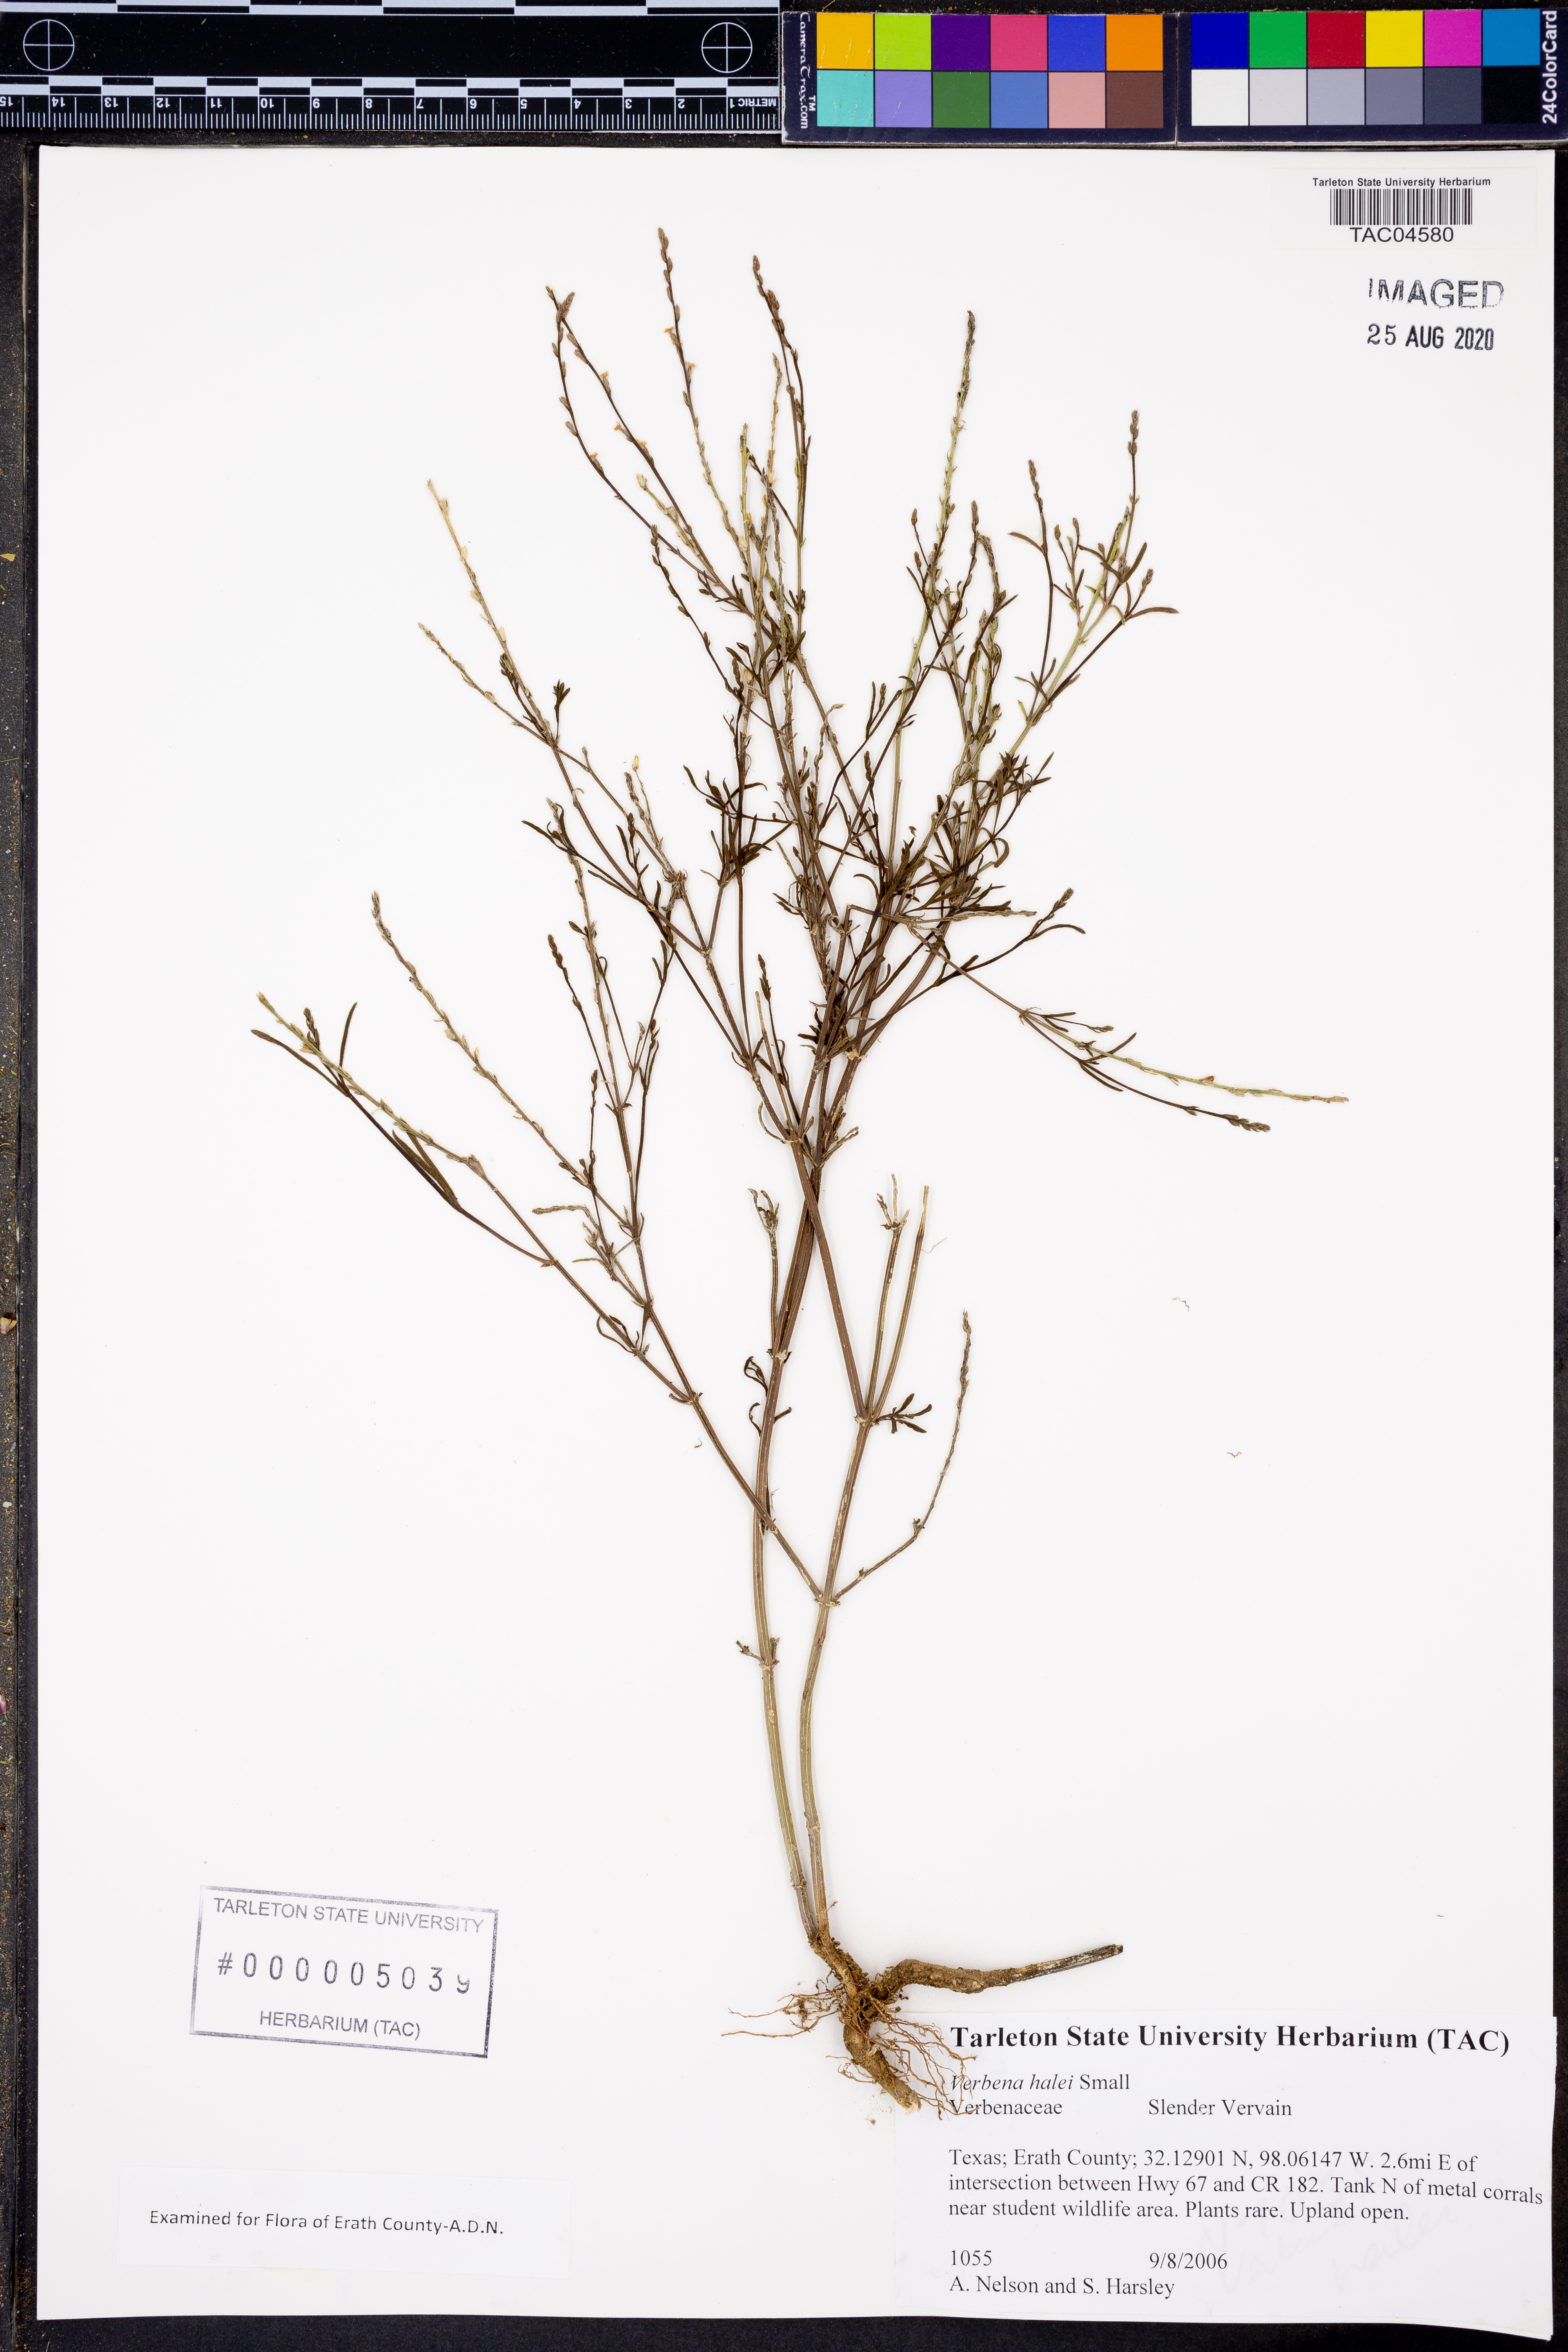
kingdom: Plantae
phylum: Tracheophyta
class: Magnoliopsida
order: Lamiales
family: Verbenaceae
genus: Verbena
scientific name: Verbena halei
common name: Texas vervain
